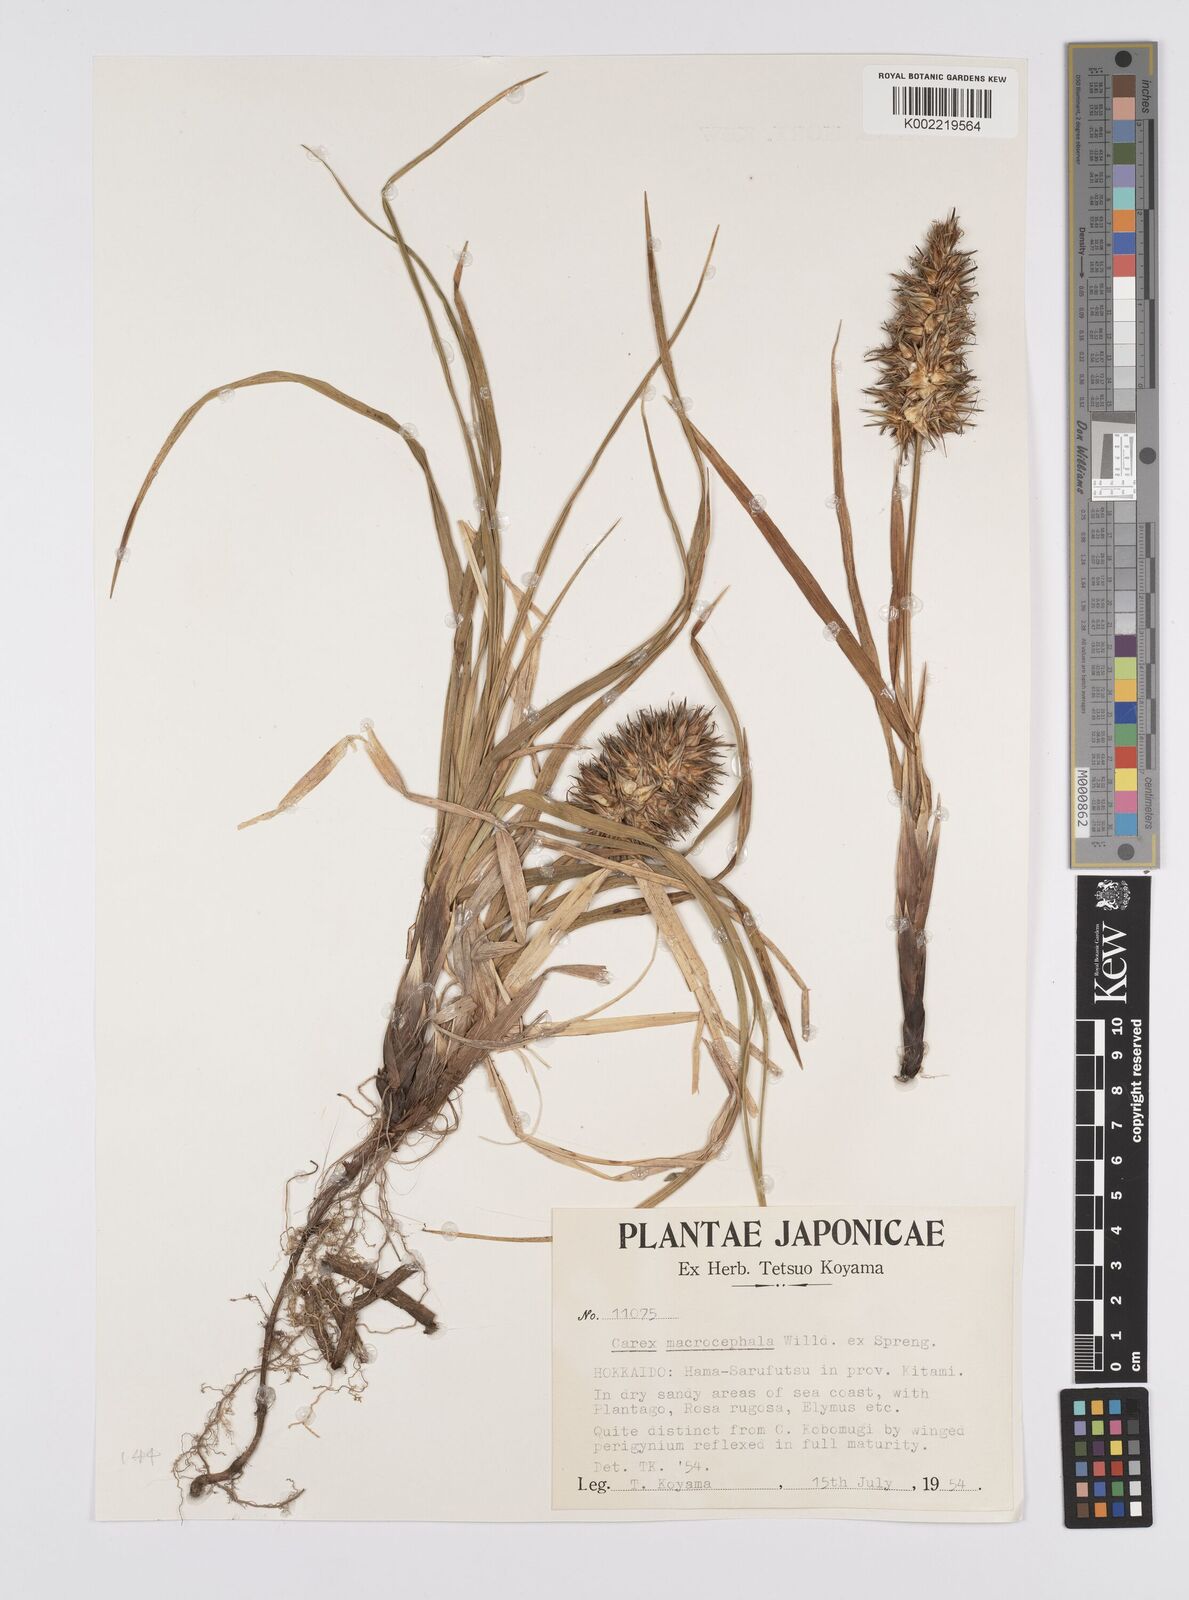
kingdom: Plantae
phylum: Tracheophyta
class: Liliopsida
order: Poales
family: Cyperaceae
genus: Carex
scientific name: Carex macrocephala
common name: Large-head sedge
